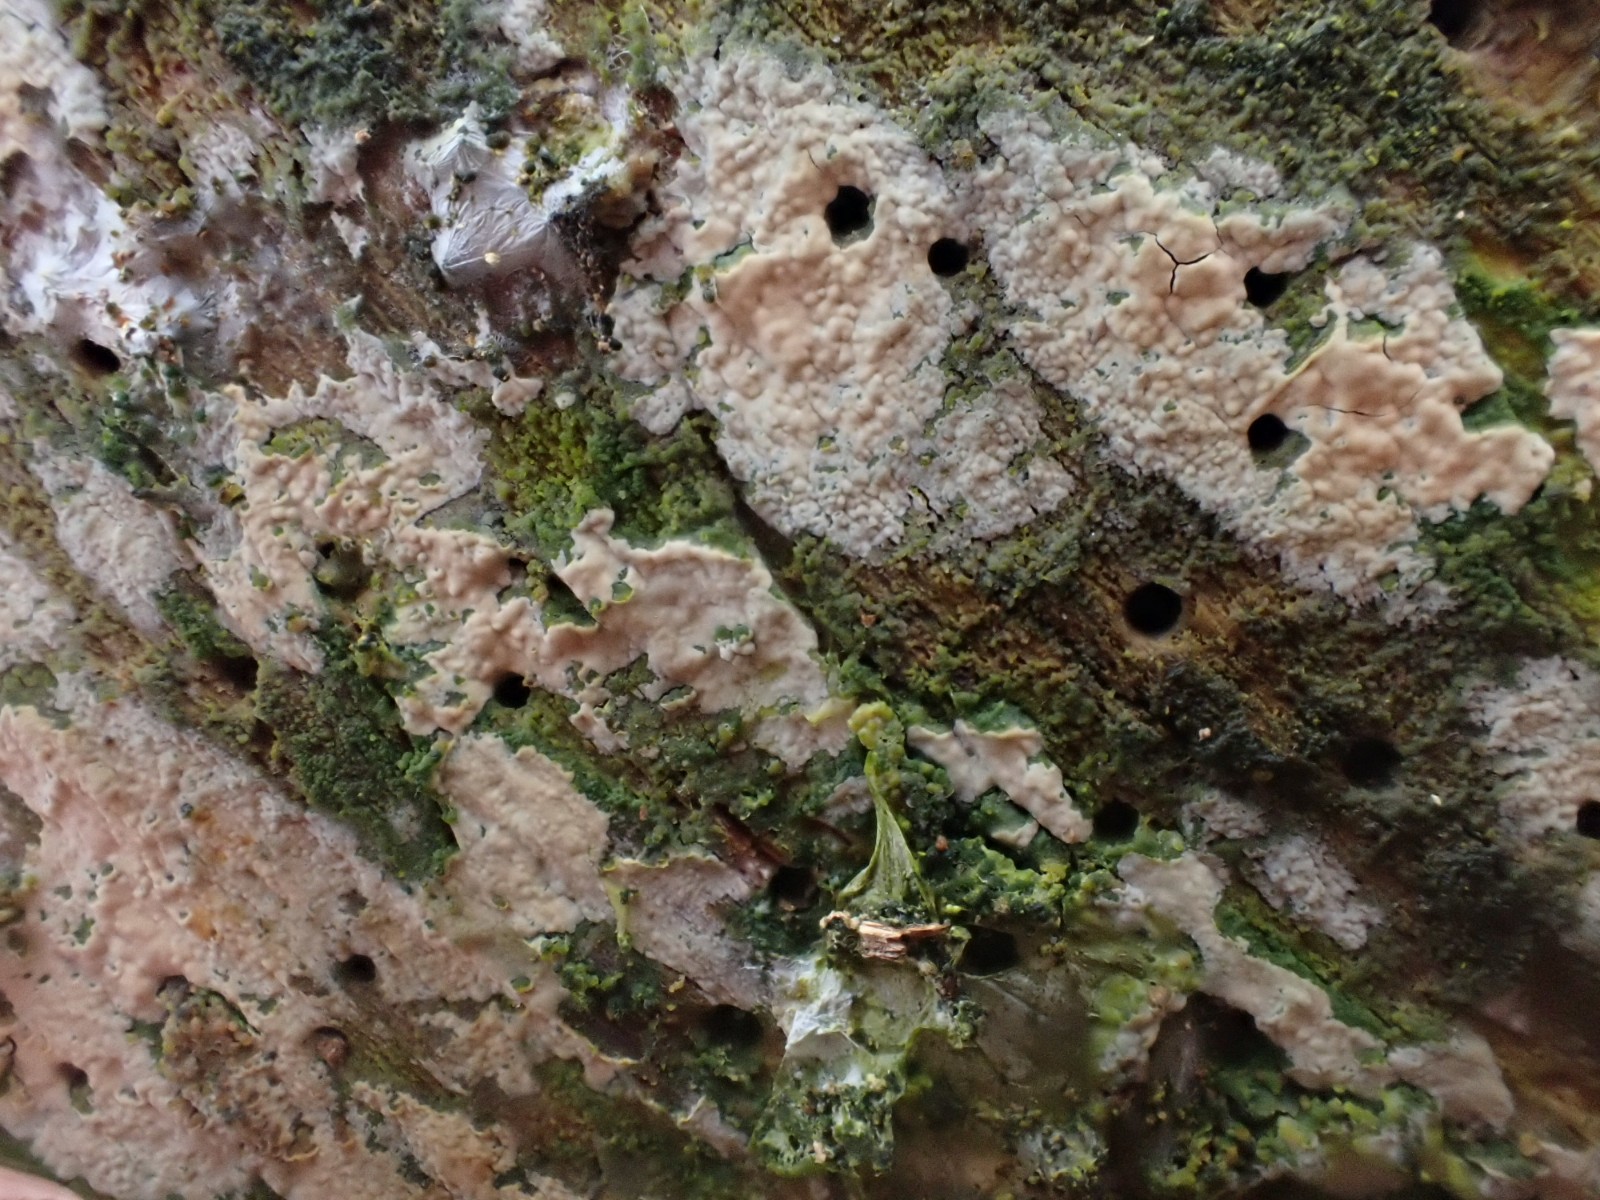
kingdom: Fungi
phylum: Basidiomycota
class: Agaricomycetes
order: Agaricales
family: Physalacriaceae
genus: Cylindrobasidium
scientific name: Cylindrobasidium evolvens
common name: sprækkehinde
